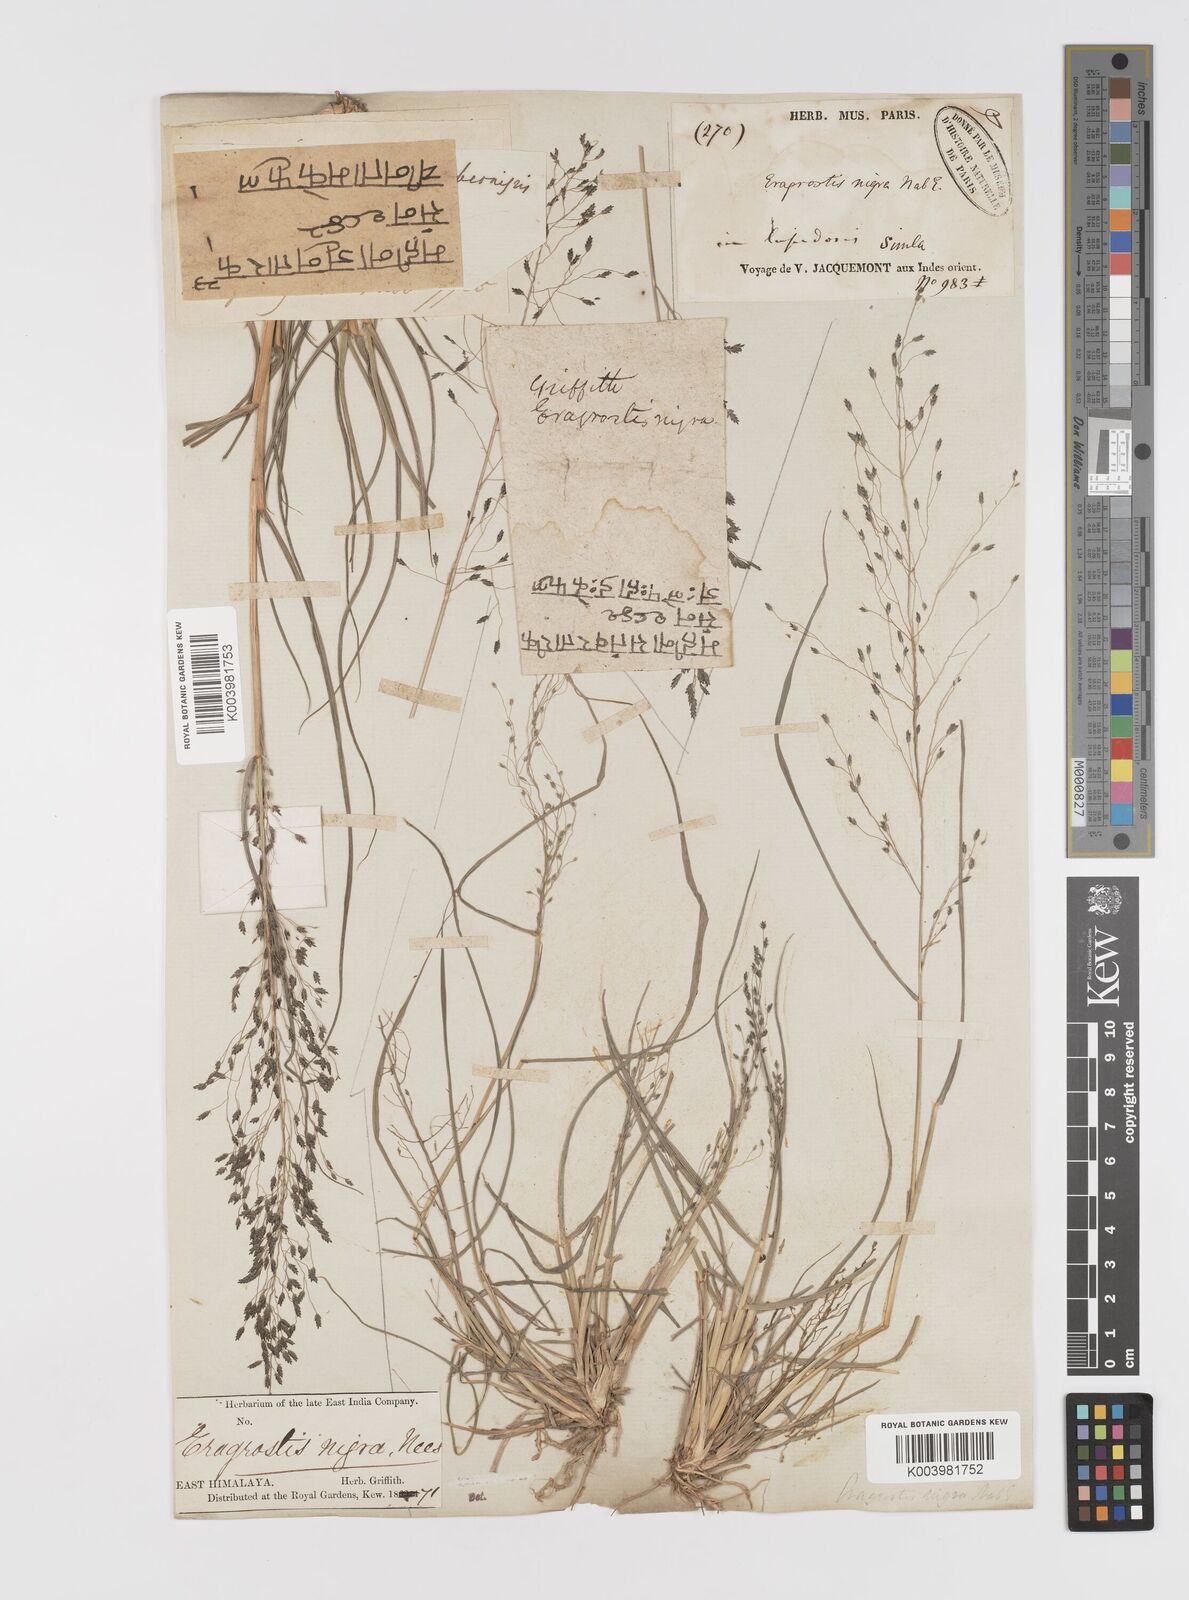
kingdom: Plantae
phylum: Tracheophyta
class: Liliopsida
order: Poales
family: Poaceae
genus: Eragrostis
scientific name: Eragrostis nigra
